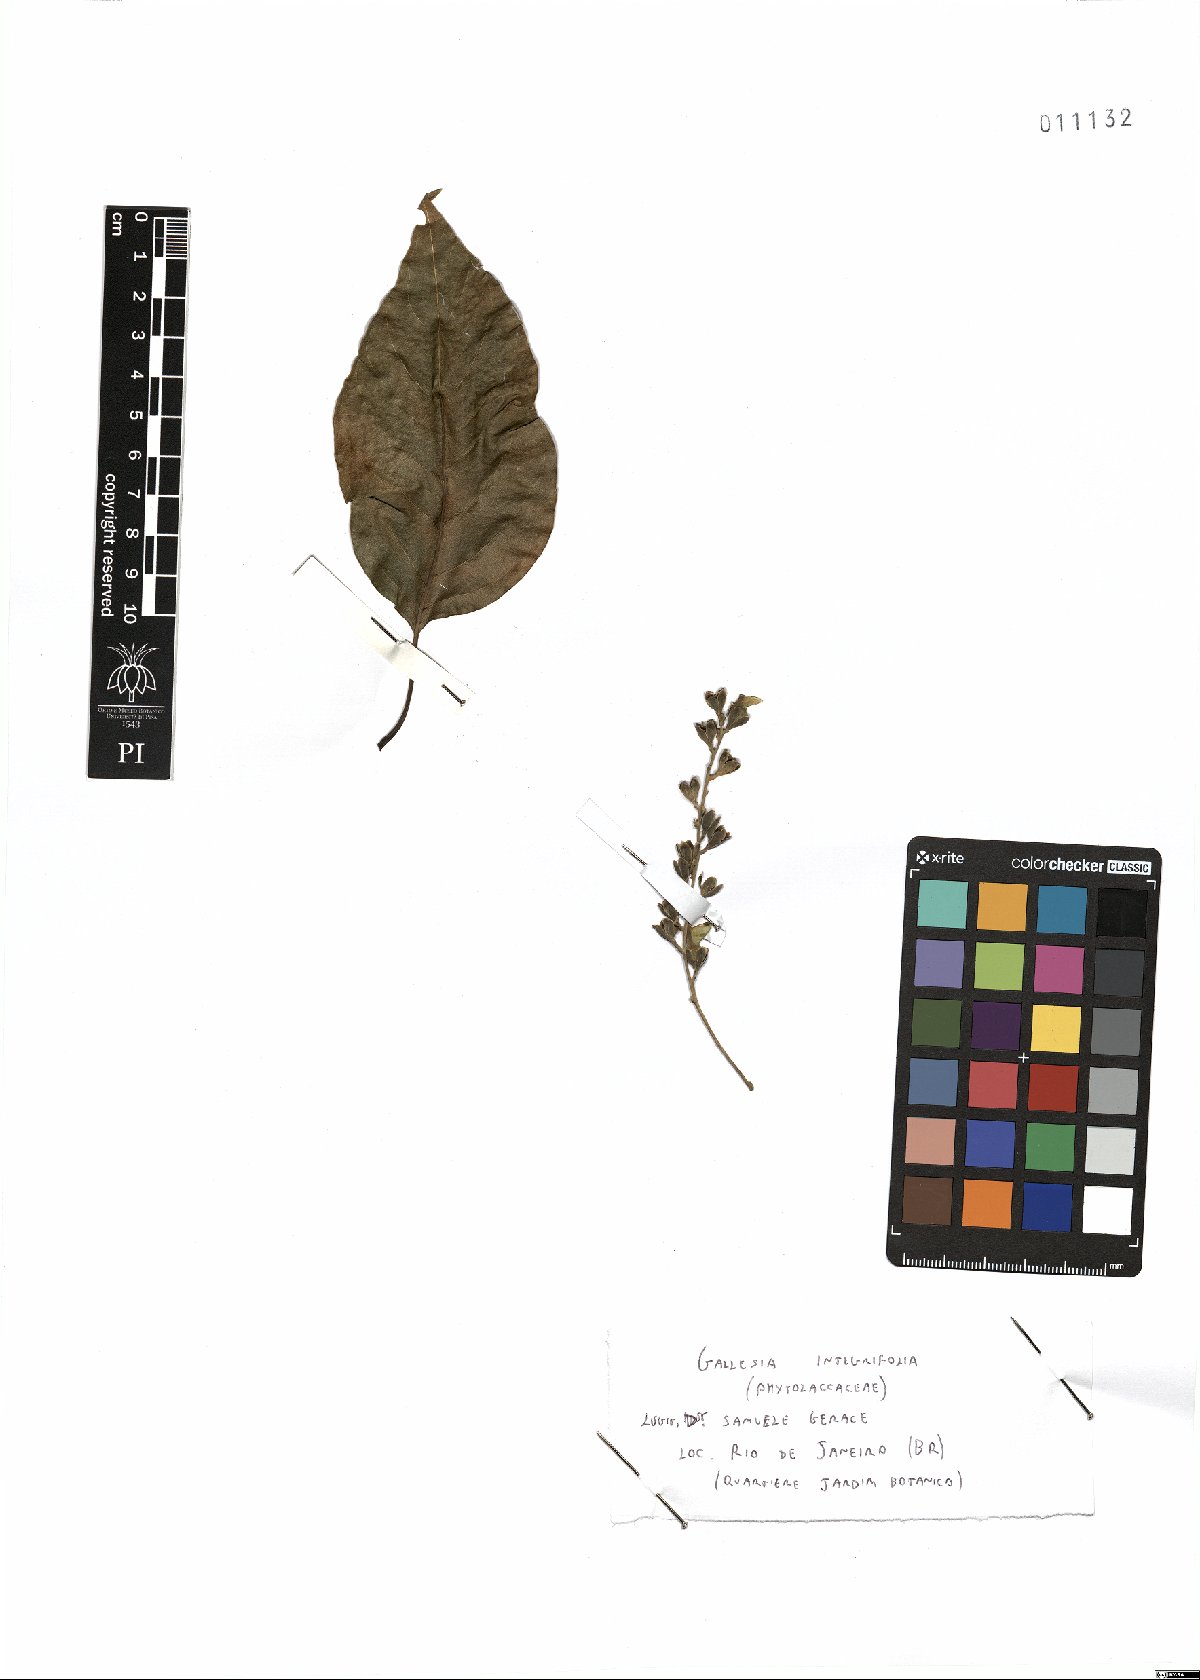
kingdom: Plantae
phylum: Tracheophyta
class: Magnoliopsida
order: Caryophyllales
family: Phytolaccaceae
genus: Gallesia
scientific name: Gallesia integrifolia
